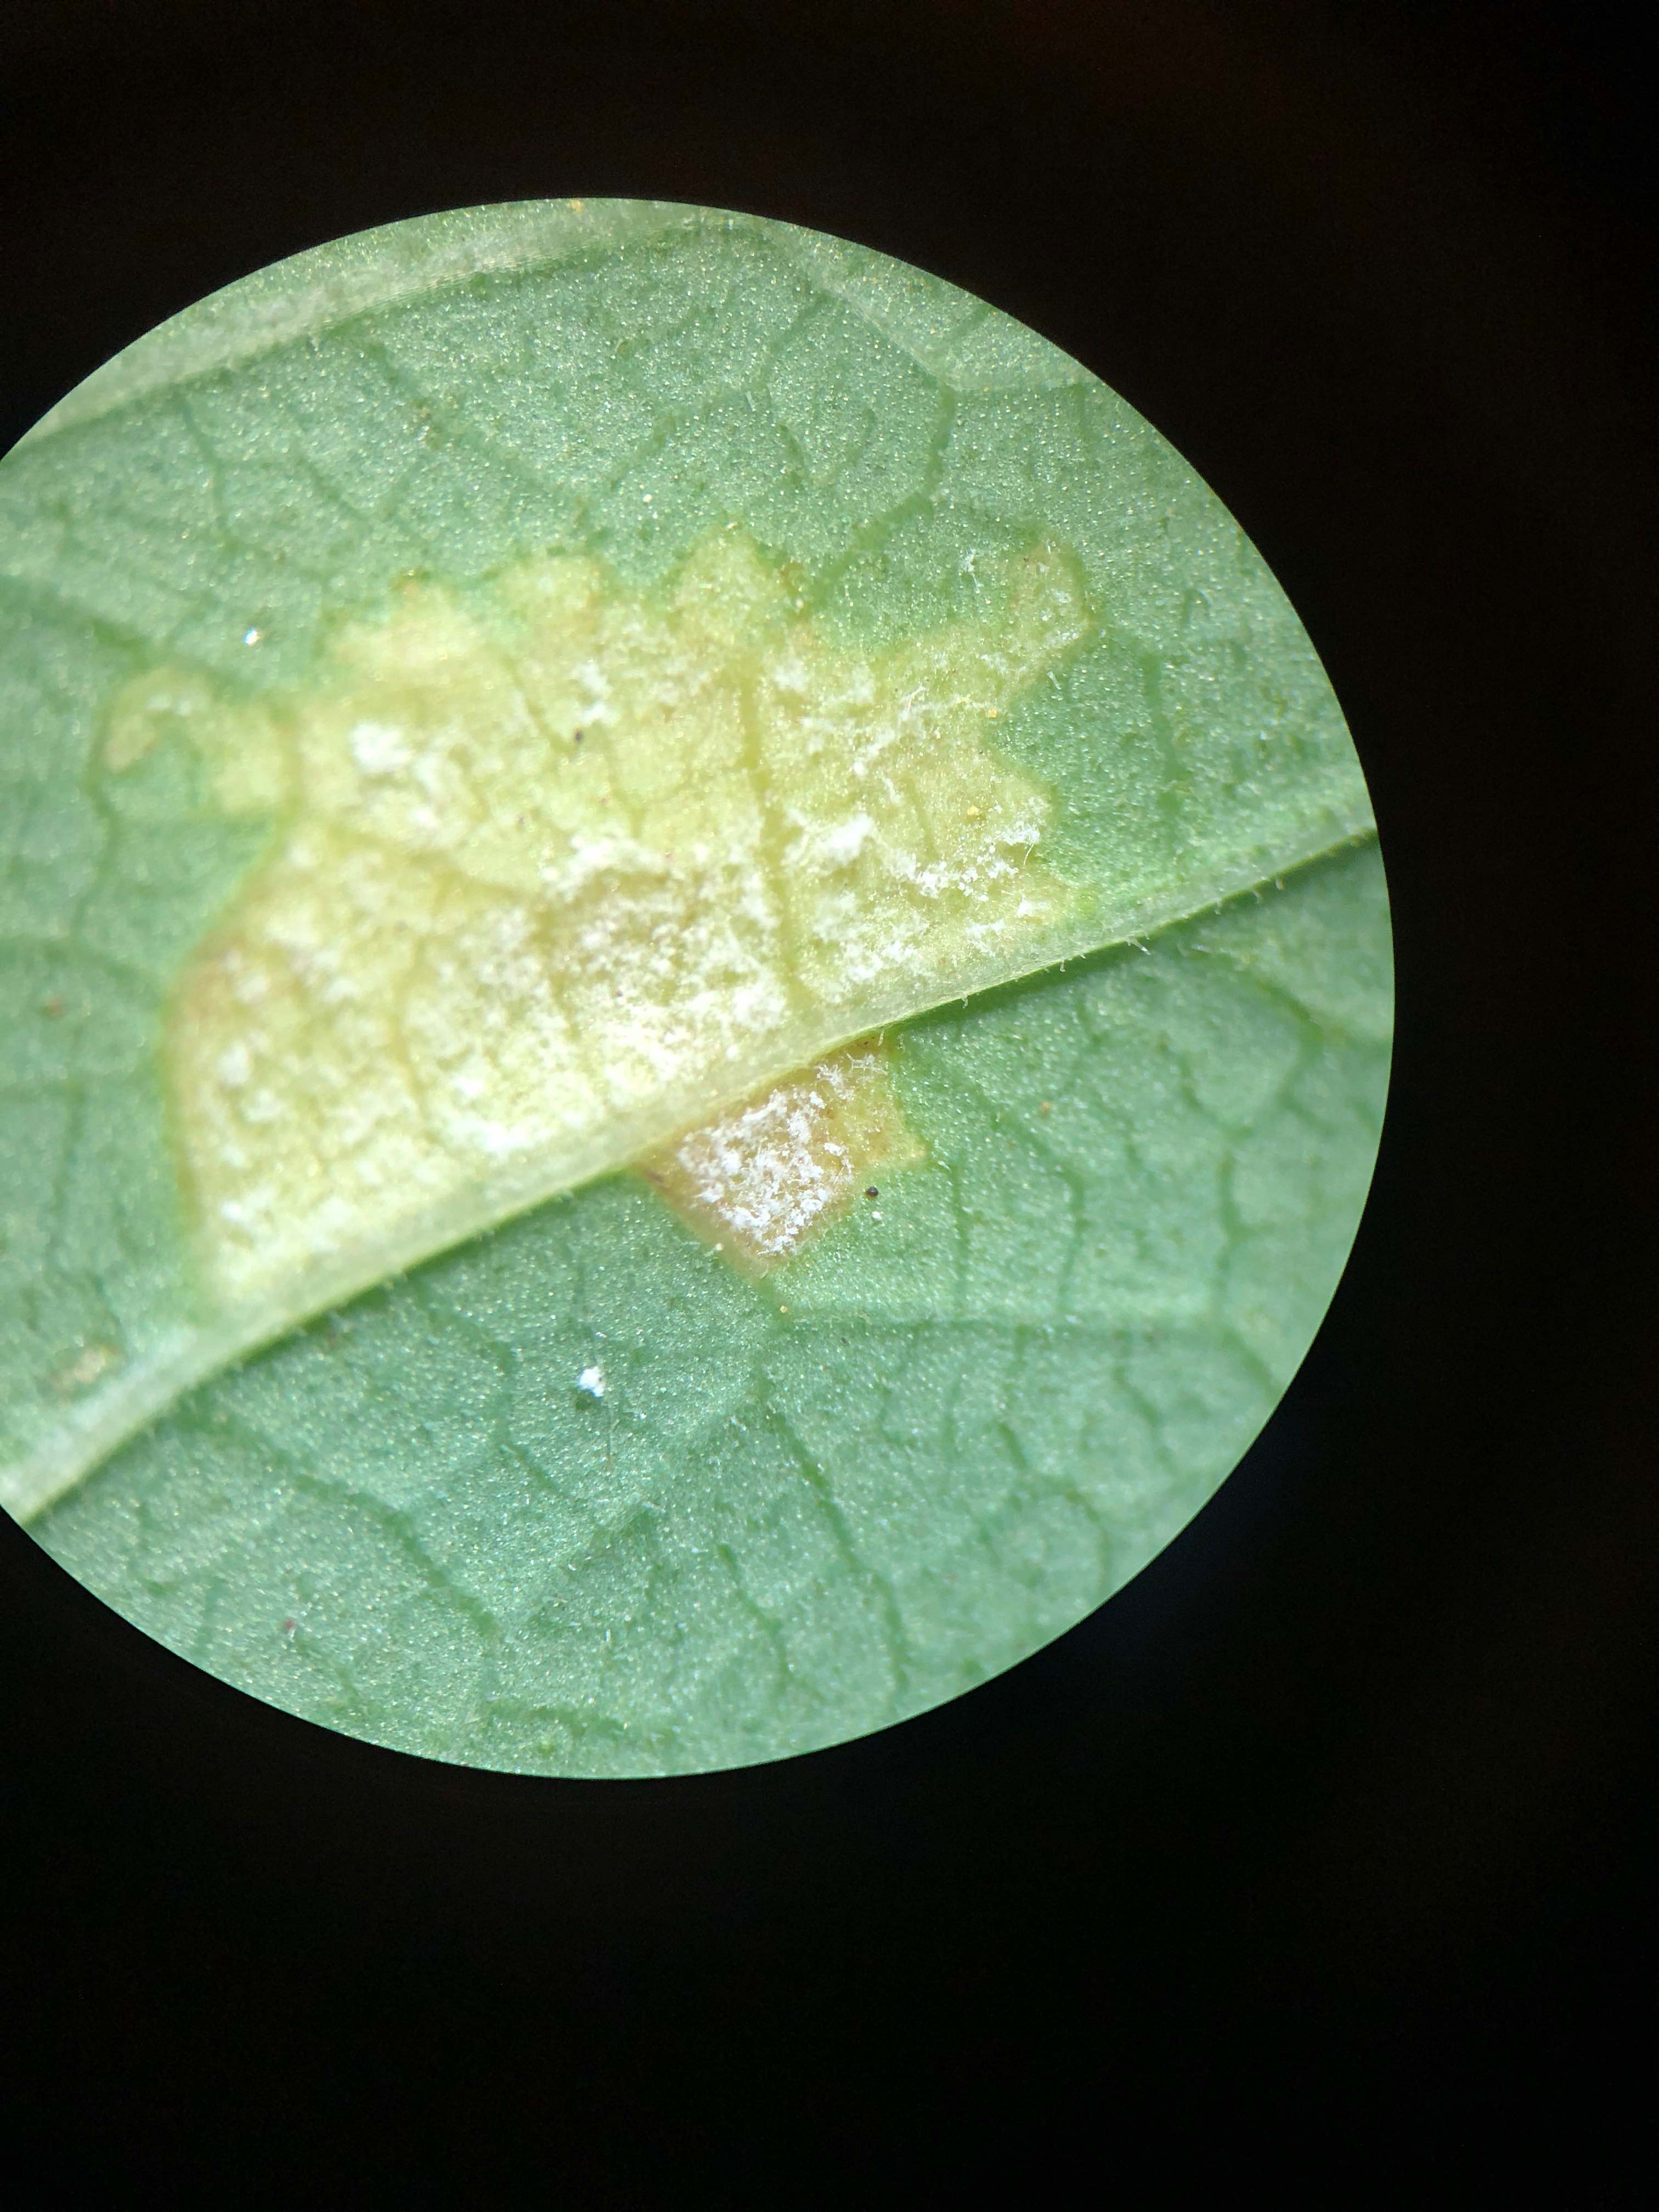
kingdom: Chromista
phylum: Oomycota
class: Peronosporea
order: Peronosporales
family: Peronosporaceae
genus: Peronospora
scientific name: Peronospora crustosa
